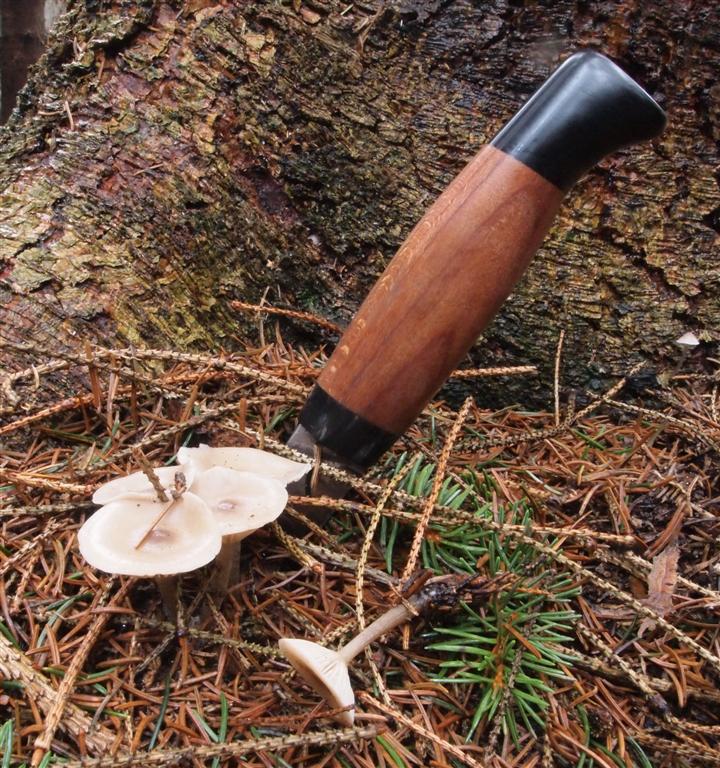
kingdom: Fungi
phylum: Basidiomycota
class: Agaricomycetes
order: Agaricales
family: Tricholomataceae
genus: Clitocybe
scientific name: Clitocybe metachroa
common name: grå tragthat
